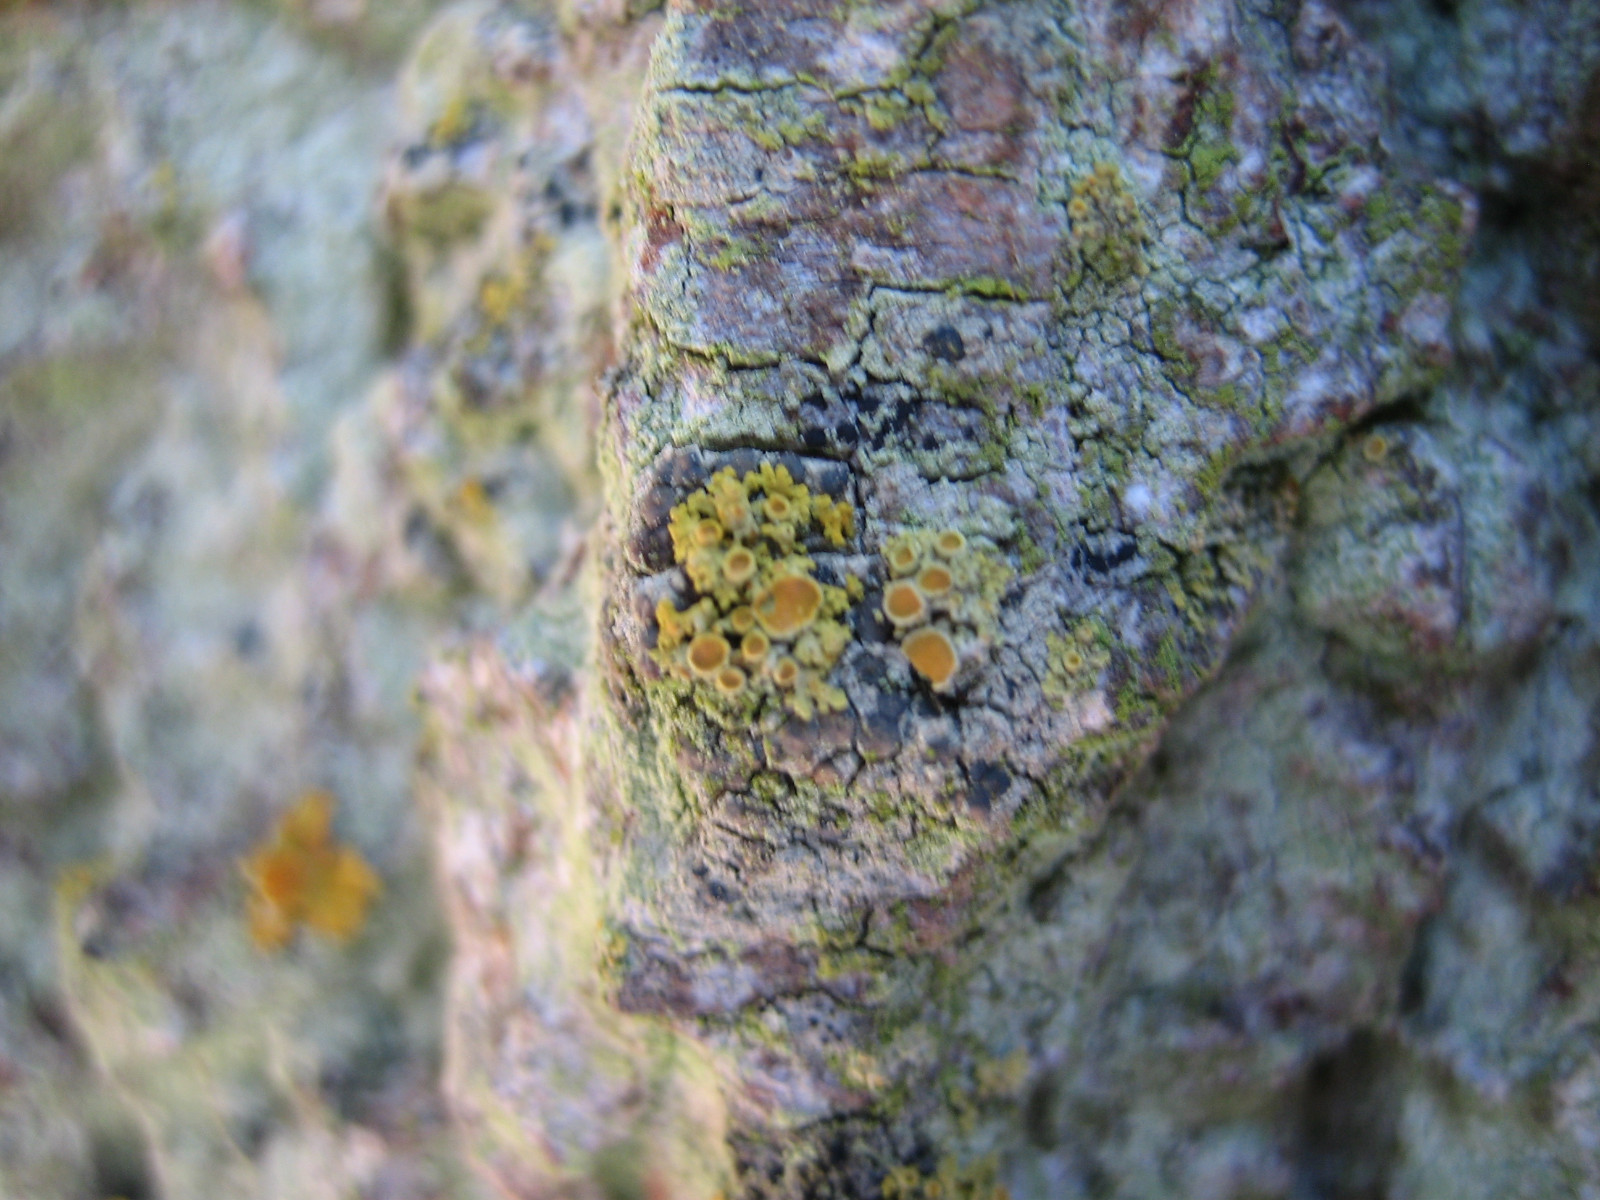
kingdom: Fungi
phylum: Ascomycota
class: Lecanoromycetes
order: Teloschistales
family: Teloschistaceae
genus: Polycauliona
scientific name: Polycauliona polycarpa
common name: mangefrugtet orangelav
